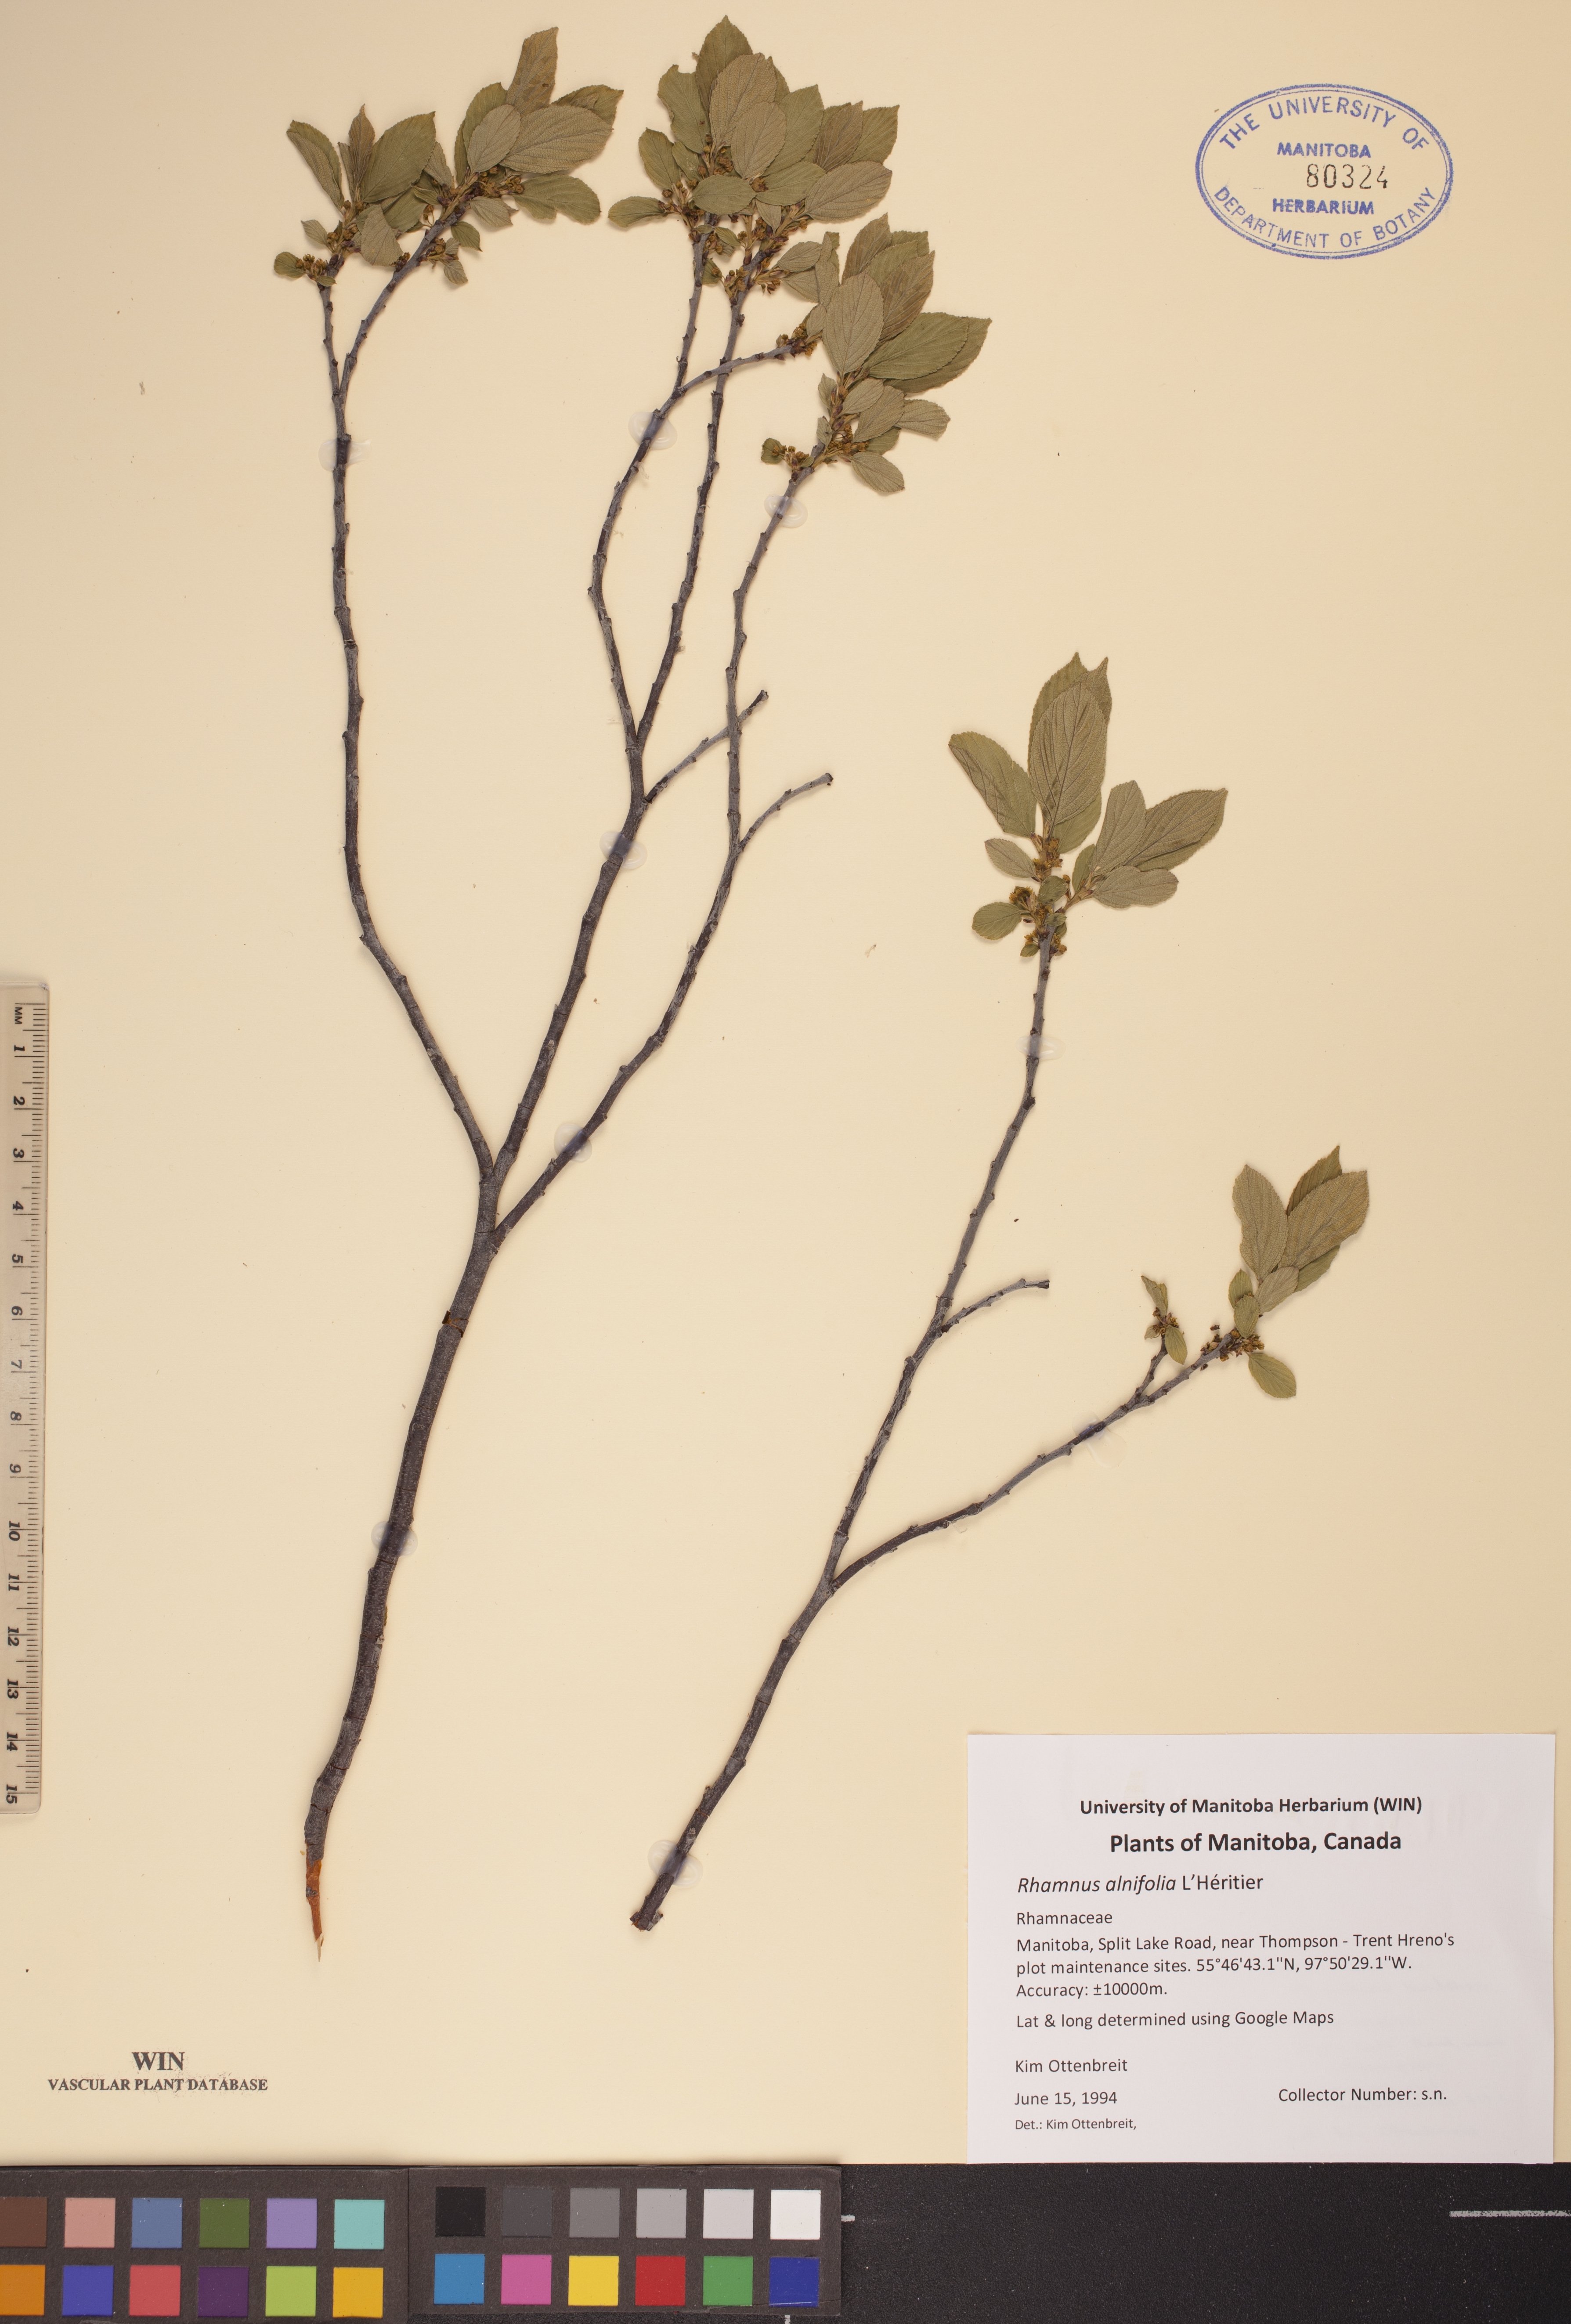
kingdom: Plantae
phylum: Tracheophyta
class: Magnoliopsida
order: Rosales
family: Rhamnaceae
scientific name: Rhamnaceae
